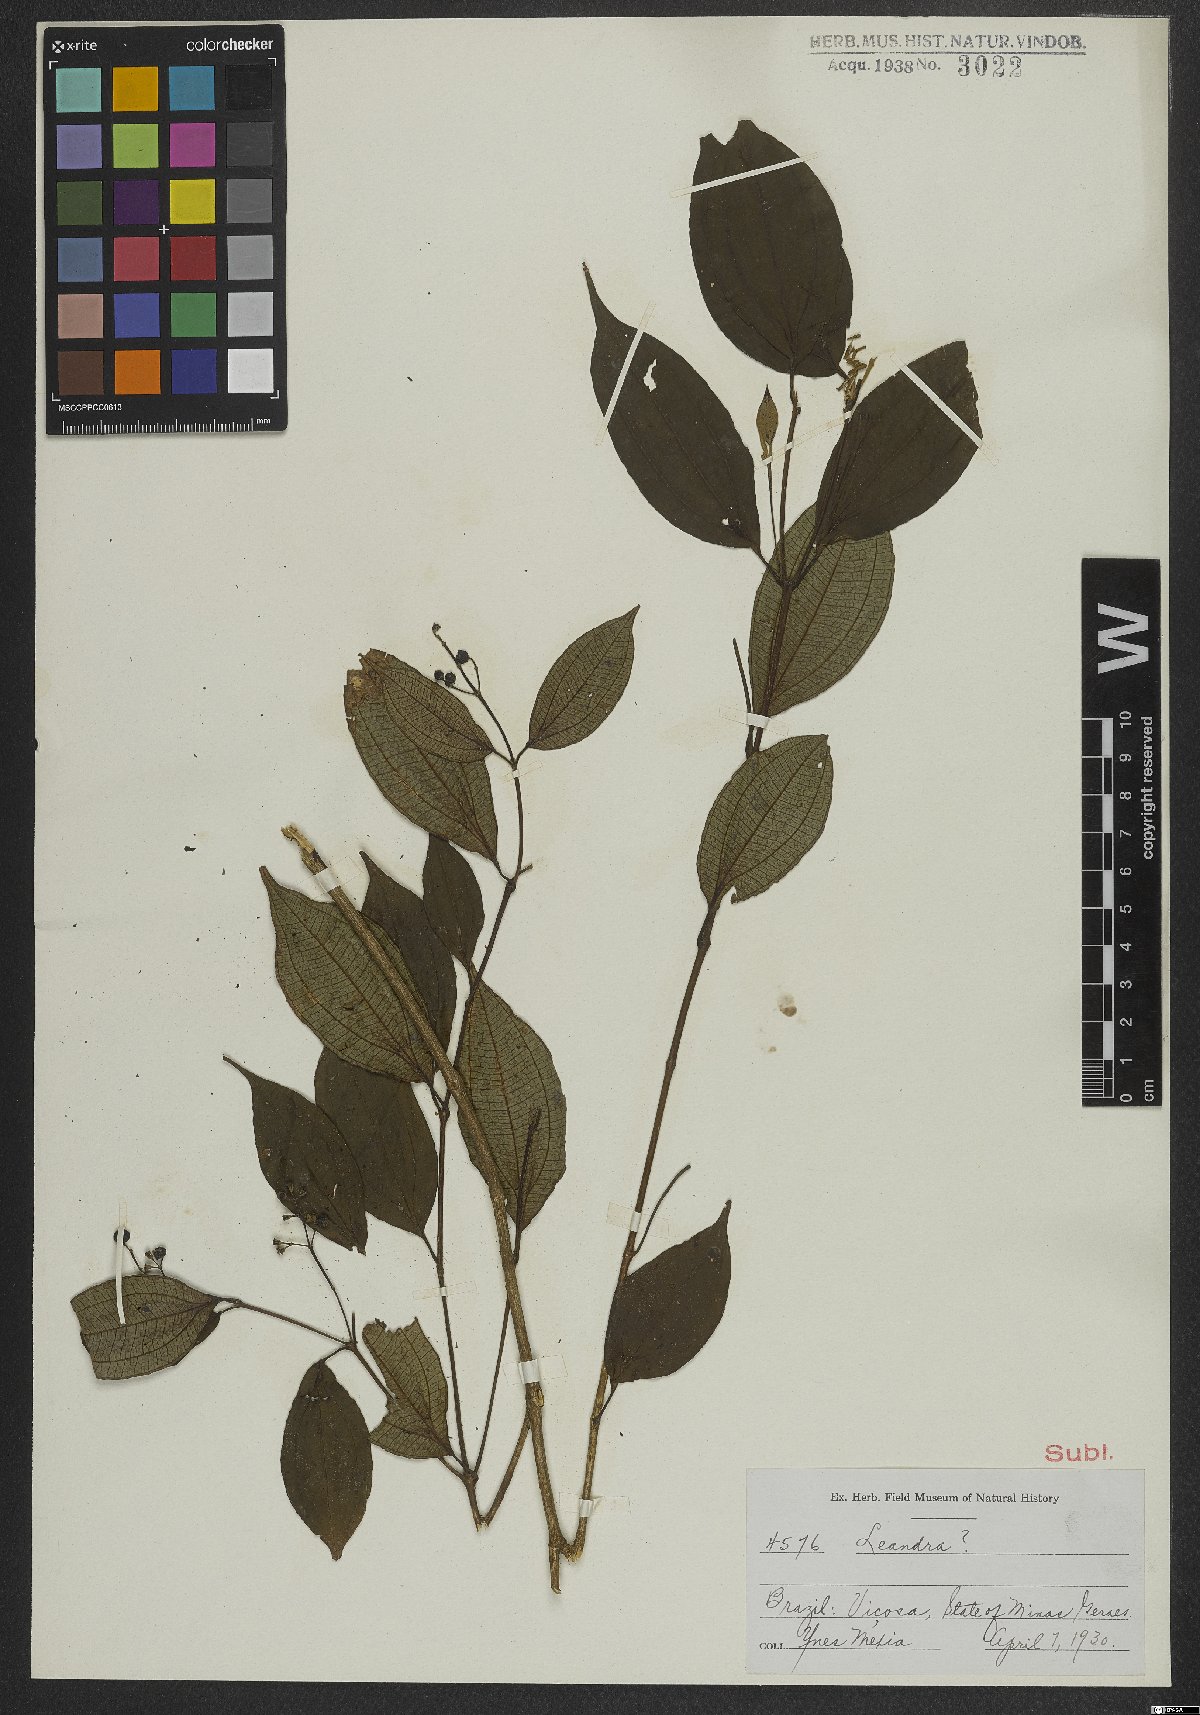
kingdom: Plantae
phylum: Tracheophyta
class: Magnoliopsida
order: Myrtales
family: Melastomataceae
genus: Miconia
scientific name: Miconia
